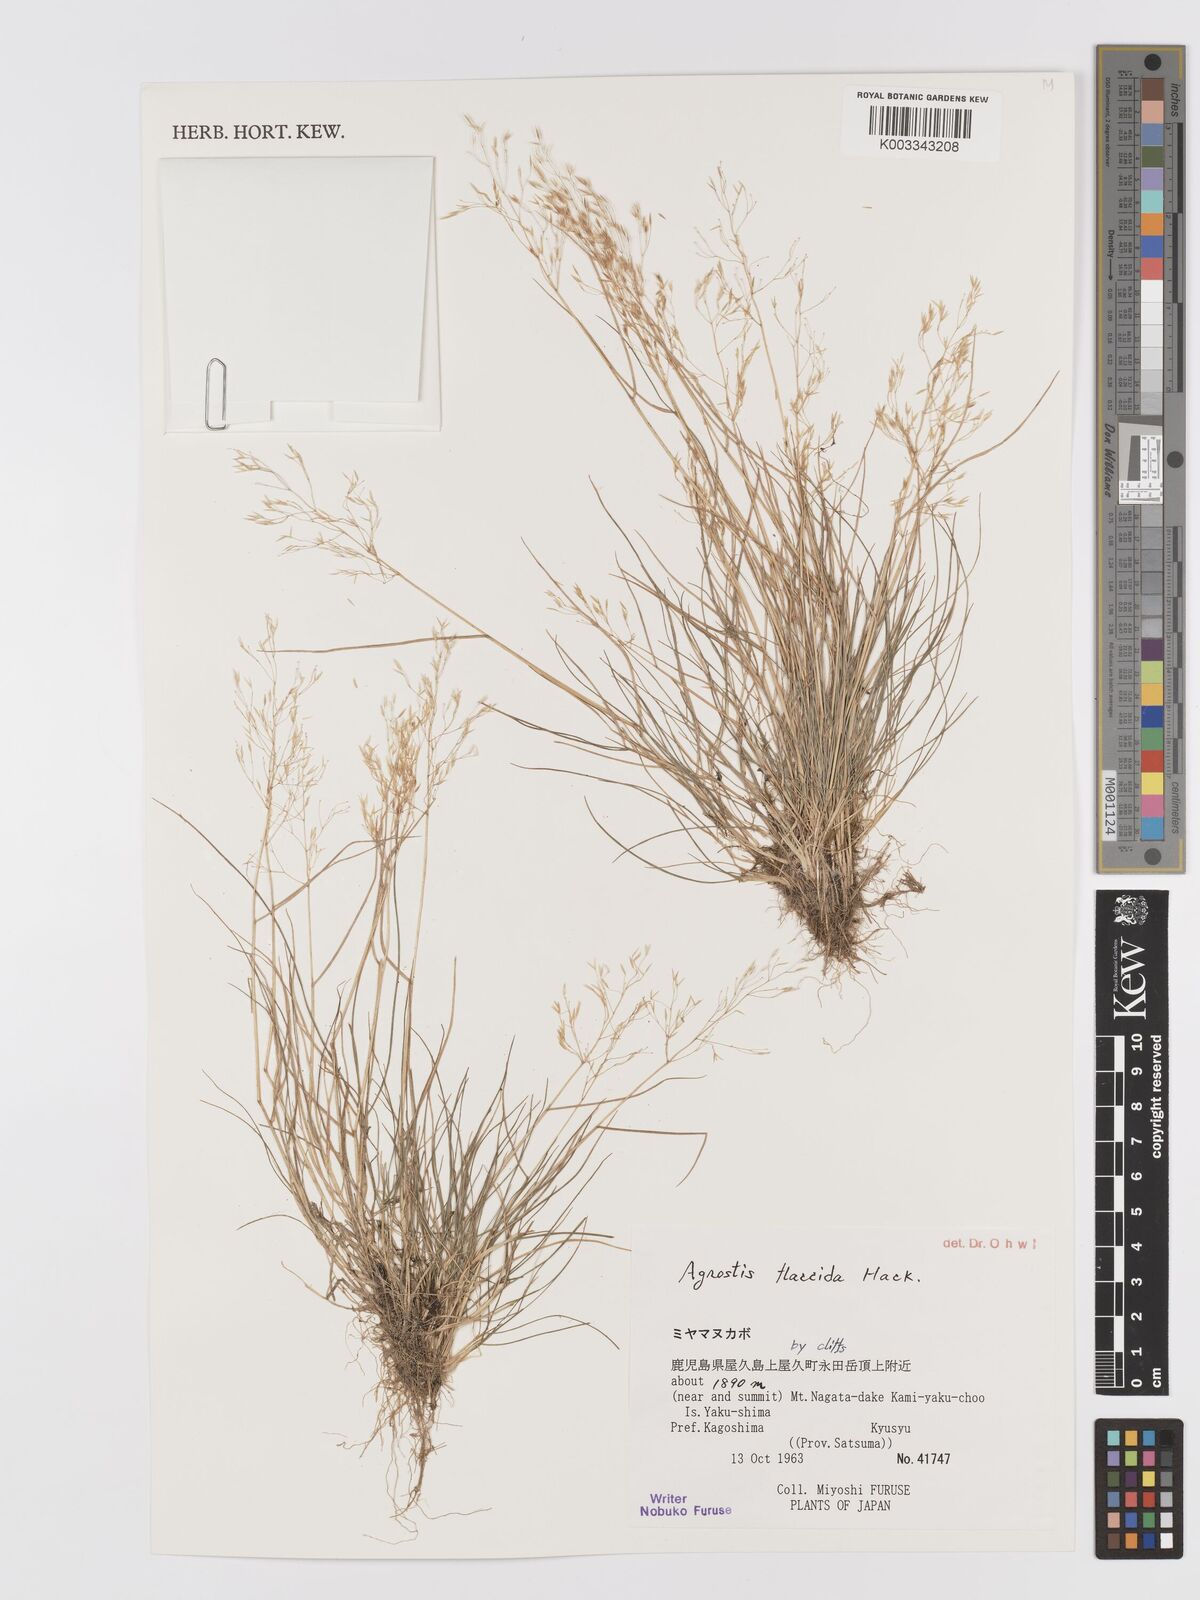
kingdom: Plantae
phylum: Tracheophyta
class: Liliopsida
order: Poales
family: Poaceae
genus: Agrostis
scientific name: Agrostis flaccida
